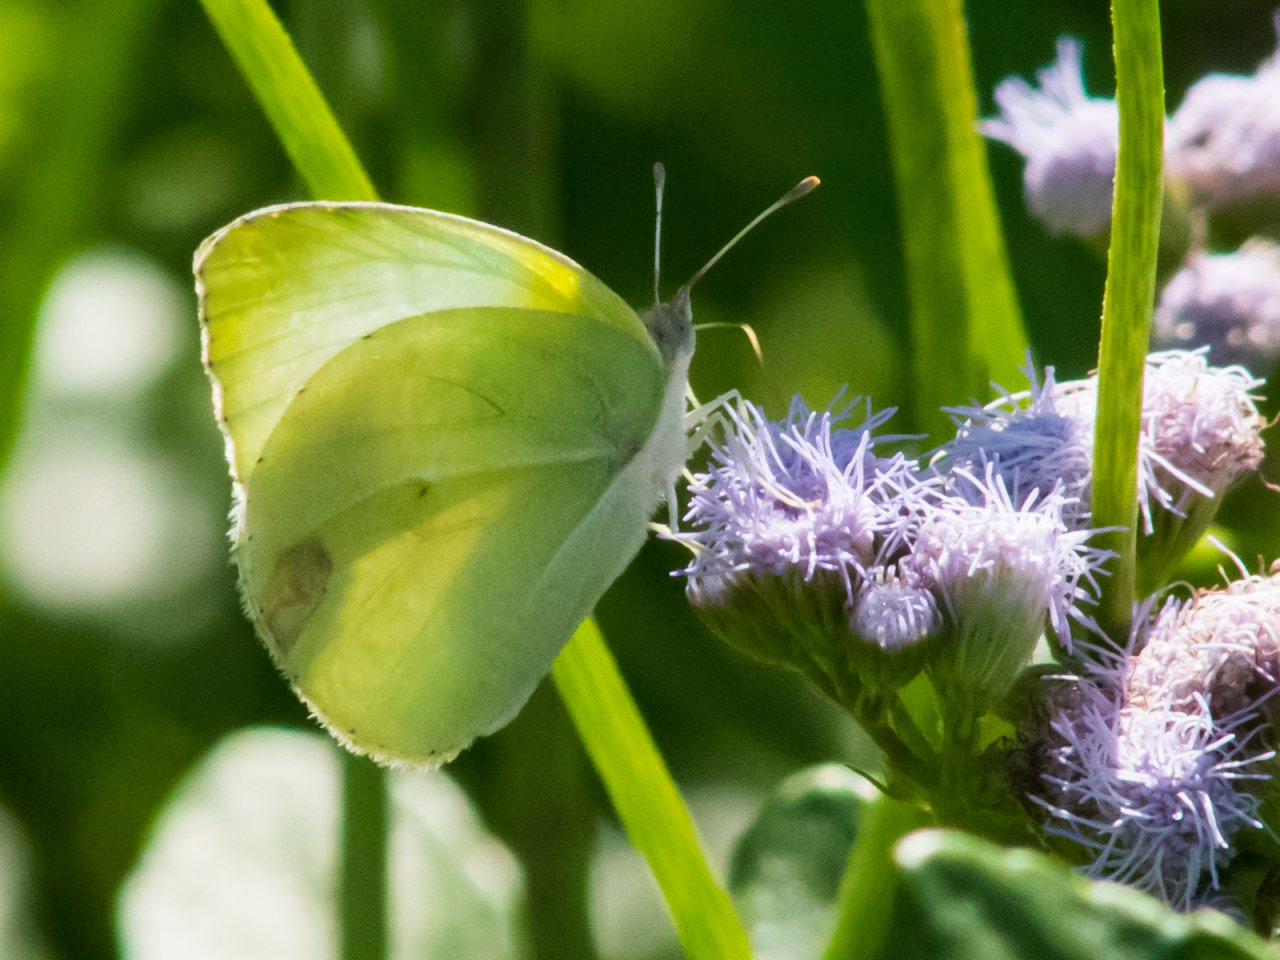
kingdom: Animalia
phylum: Arthropoda
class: Insecta
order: Lepidoptera
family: Pieridae
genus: Kricogonia
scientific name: Kricogonia lyside
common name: Lyside Sulphur
